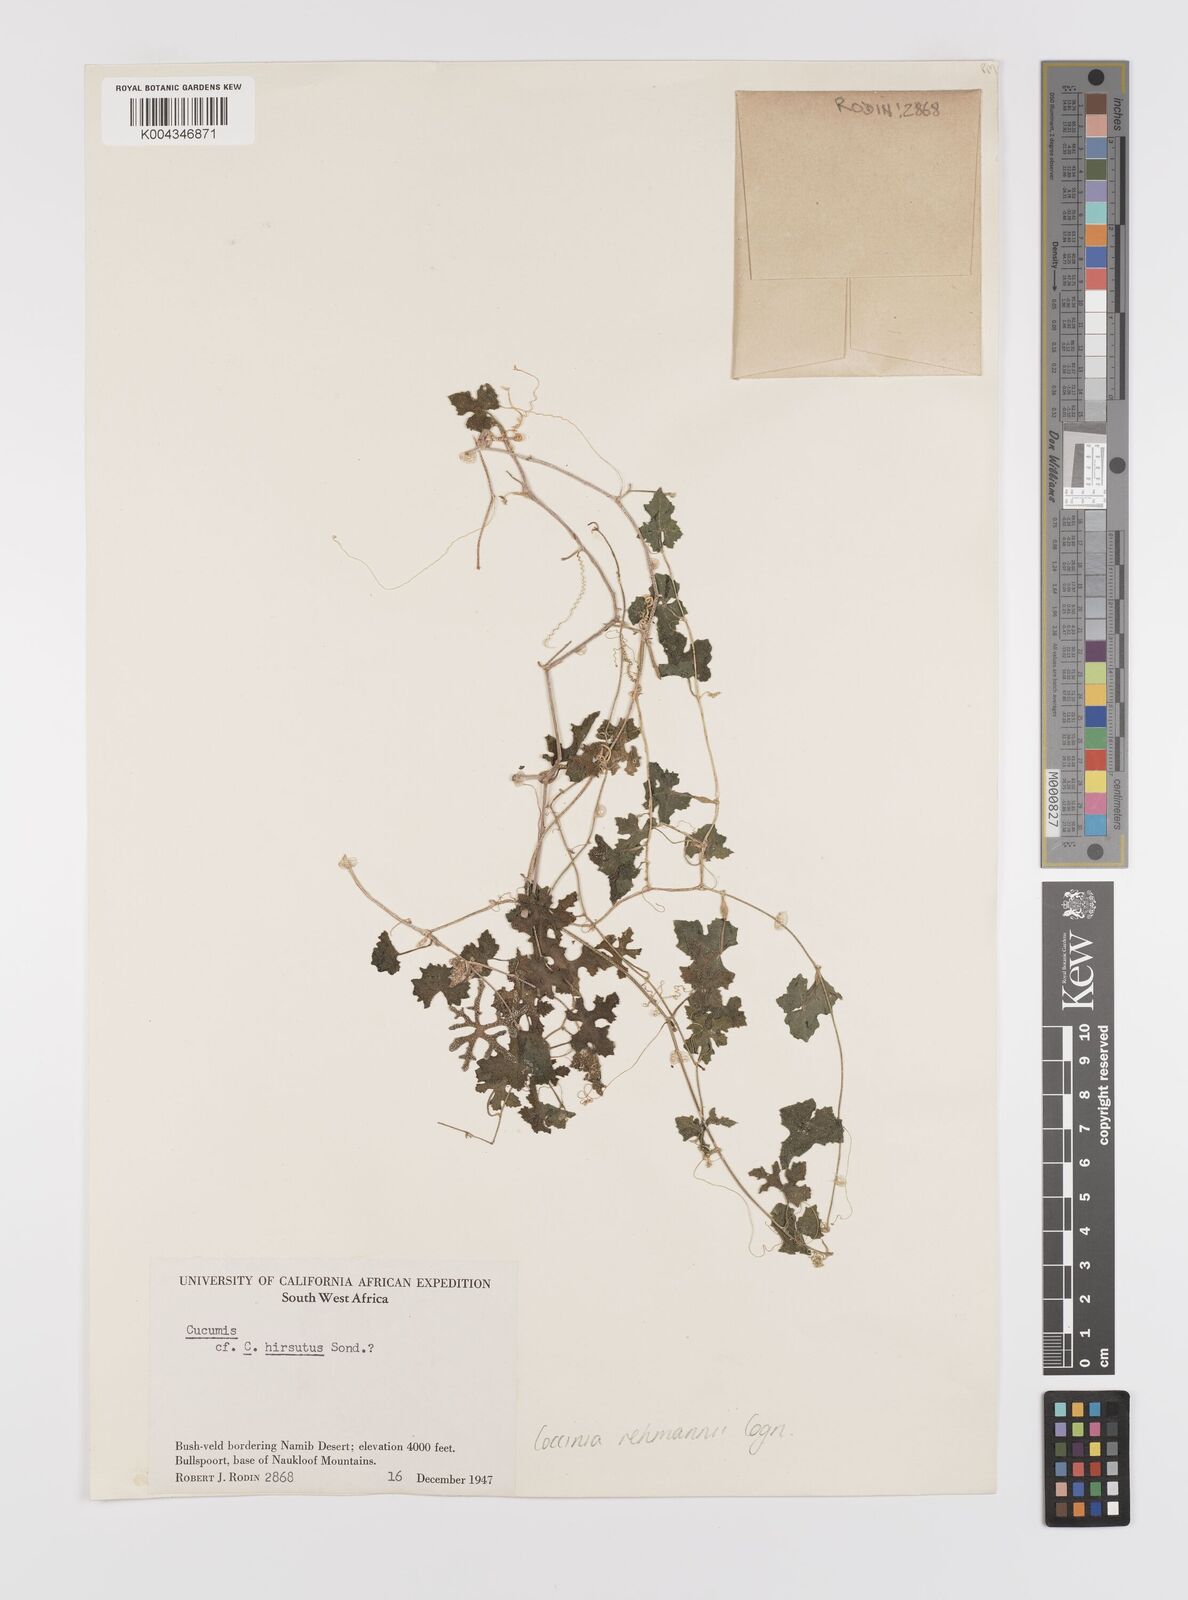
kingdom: Plantae
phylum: Tracheophyta
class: Magnoliopsida
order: Cucurbitales
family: Cucurbitaceae
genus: Coccinia
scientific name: Coccinia rehmannii
